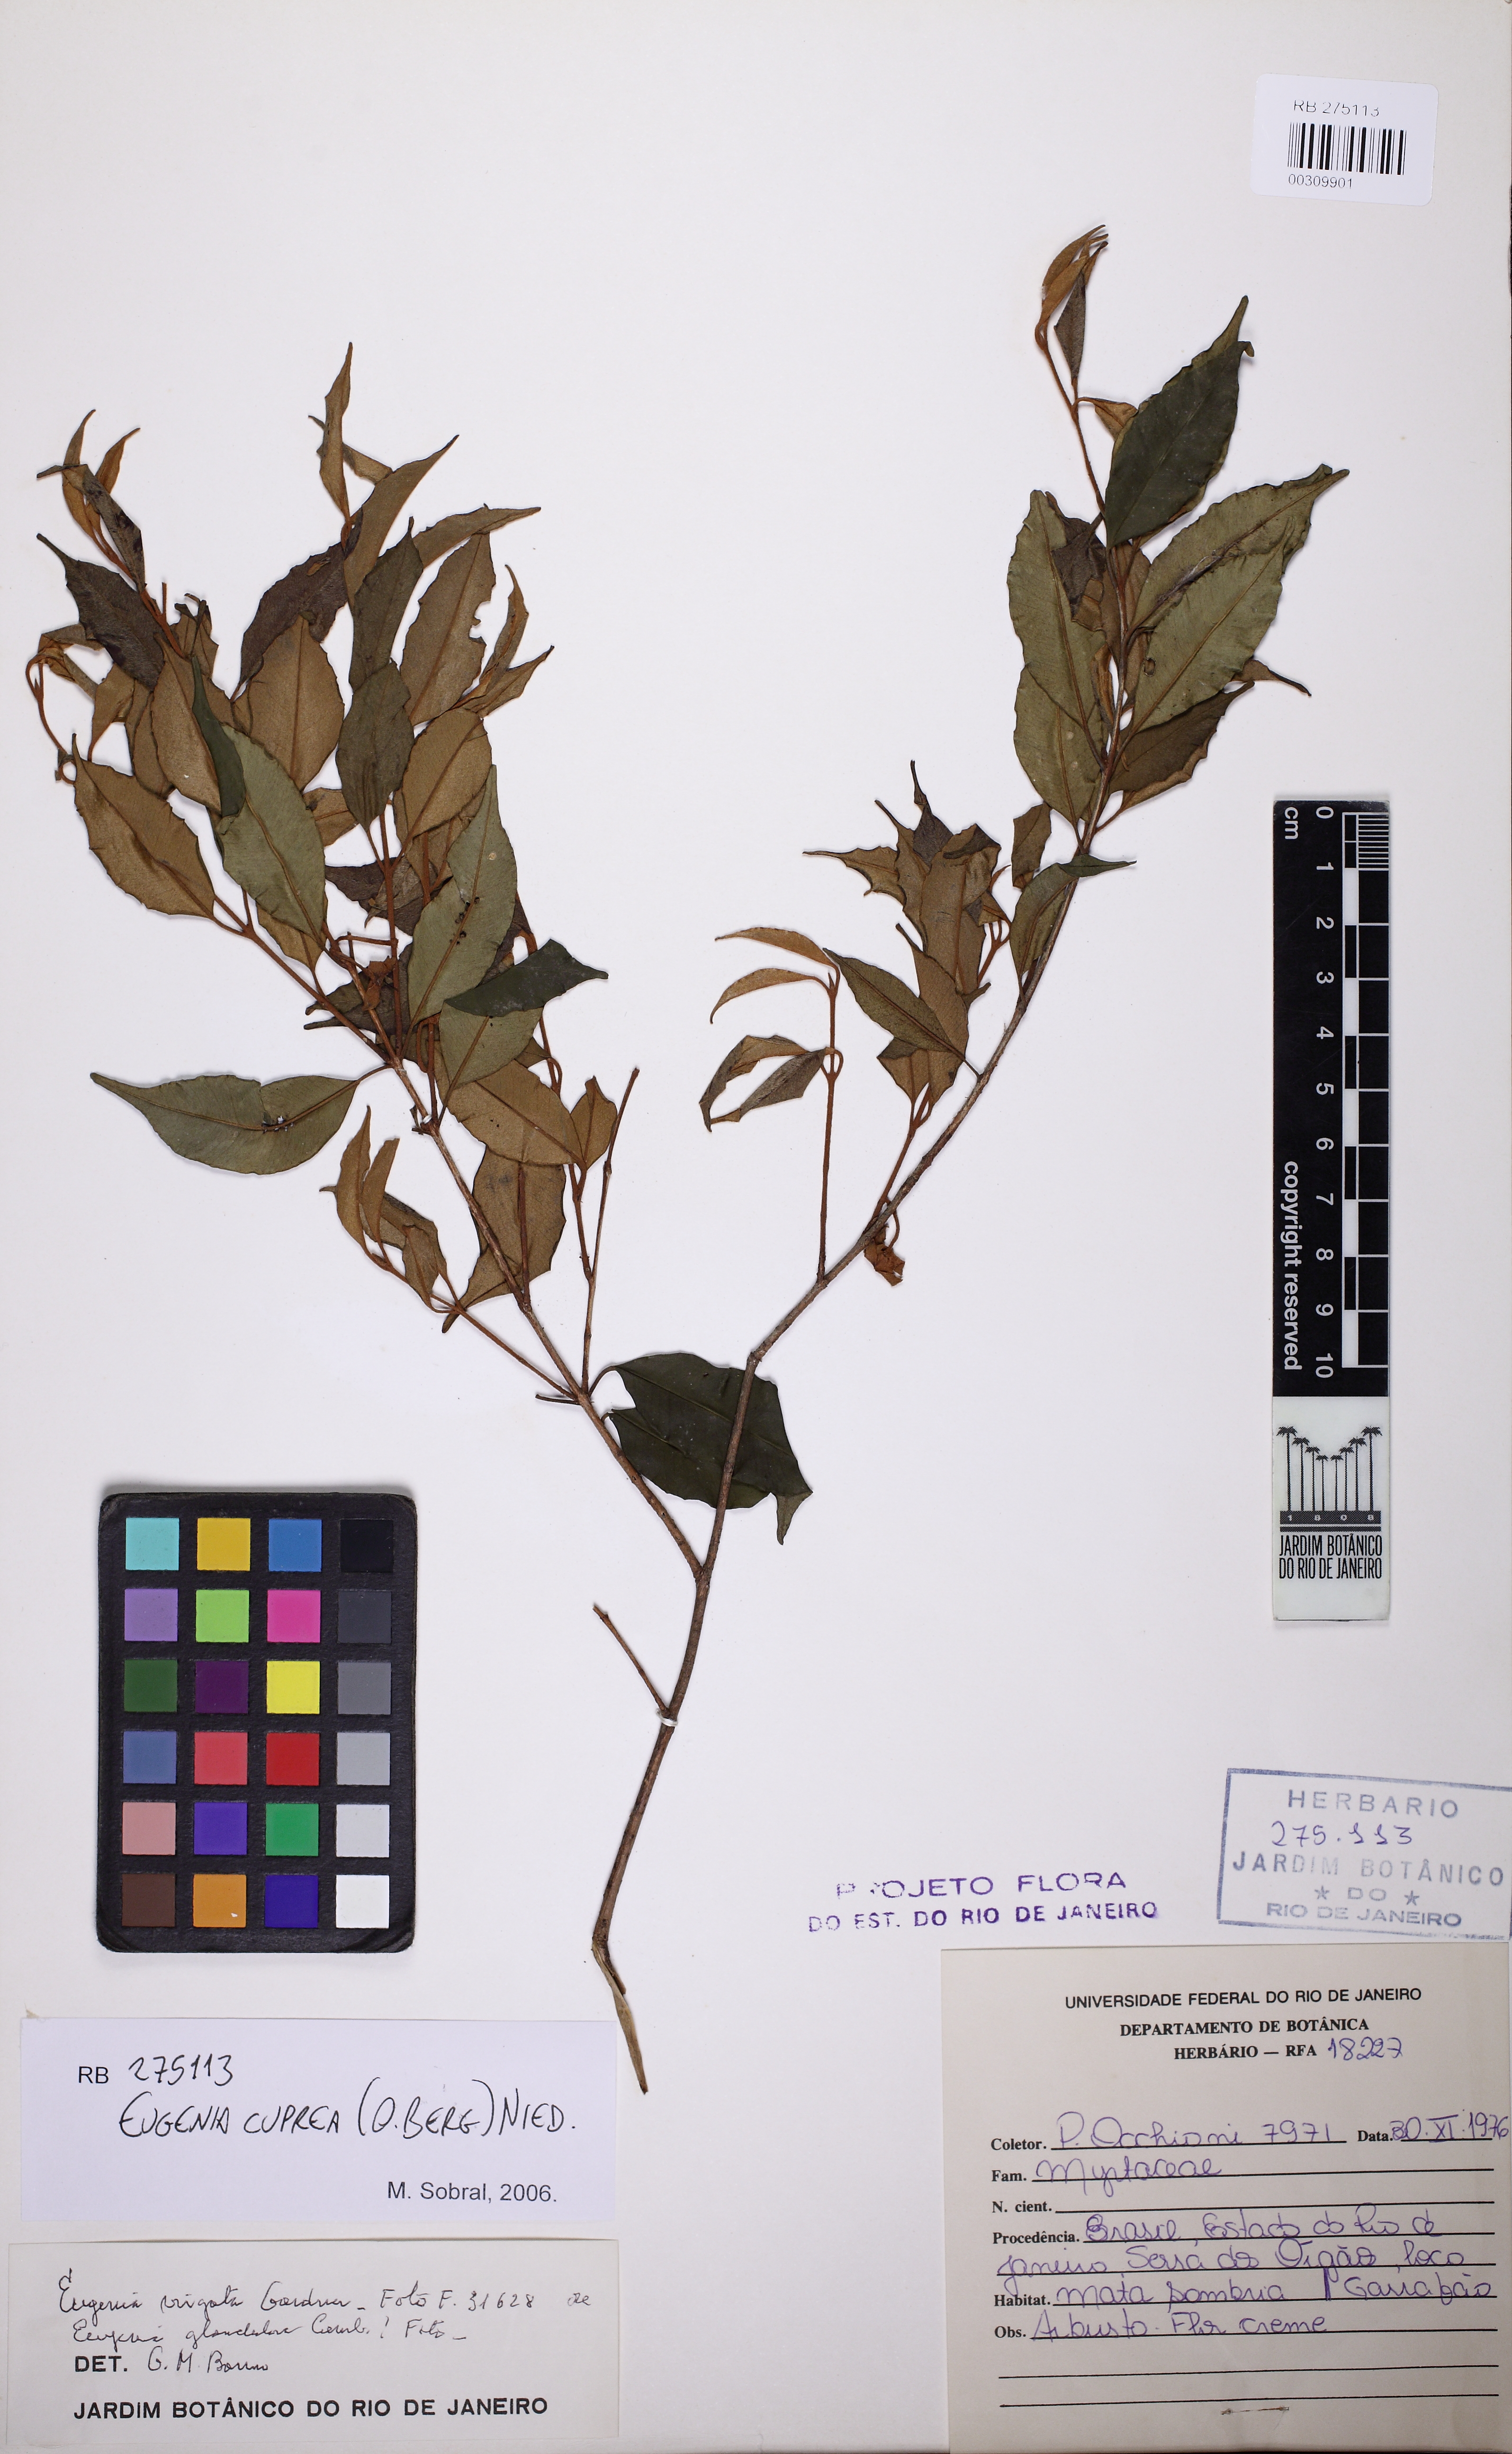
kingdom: Plantae
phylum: Tracheophyta
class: Magnoliopsida
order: Myrtales
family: Myrtaceae
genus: Eugenia
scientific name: Eugenia cuprea
